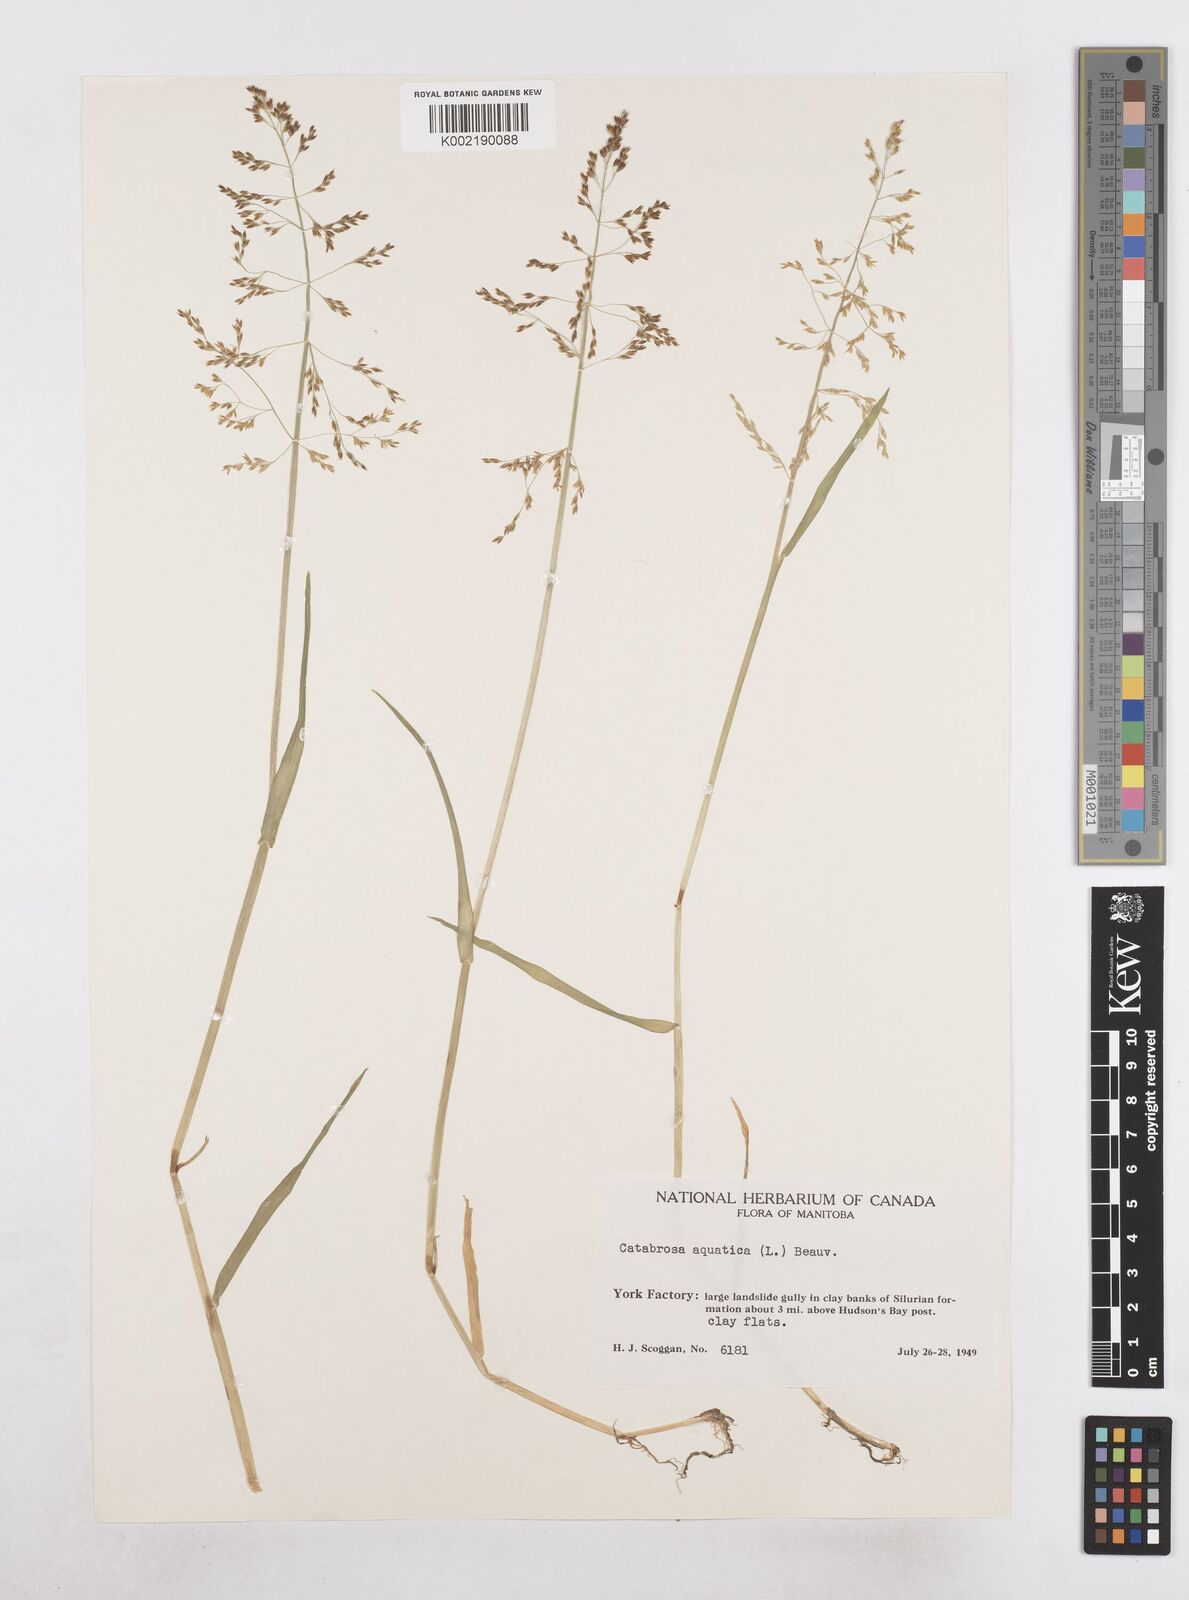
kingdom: Plantae
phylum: Tracheophyta
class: Liliopsida
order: Poales
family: Poaceae
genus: Catabrosa
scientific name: Catabrosa aquatica
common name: Whorl-grass
